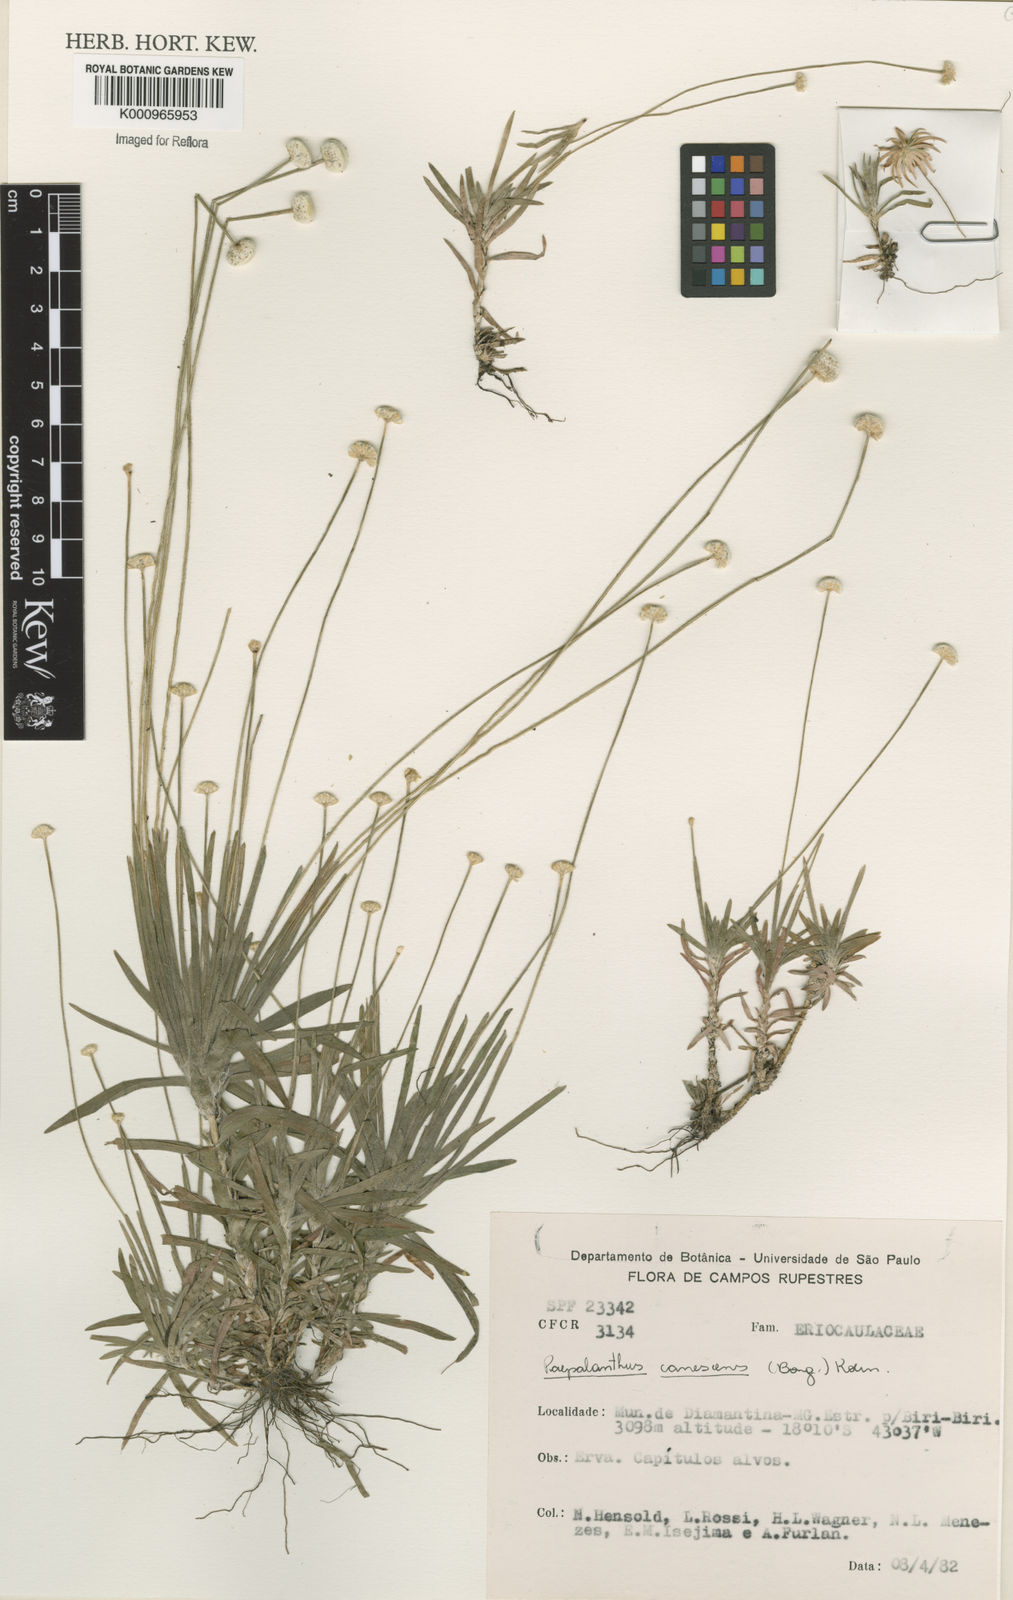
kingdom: Plantae
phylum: Tracheophyta
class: Liliopsida
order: Poales
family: Eriocaulaceae
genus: Paepalanthus
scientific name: Paepalanthus
